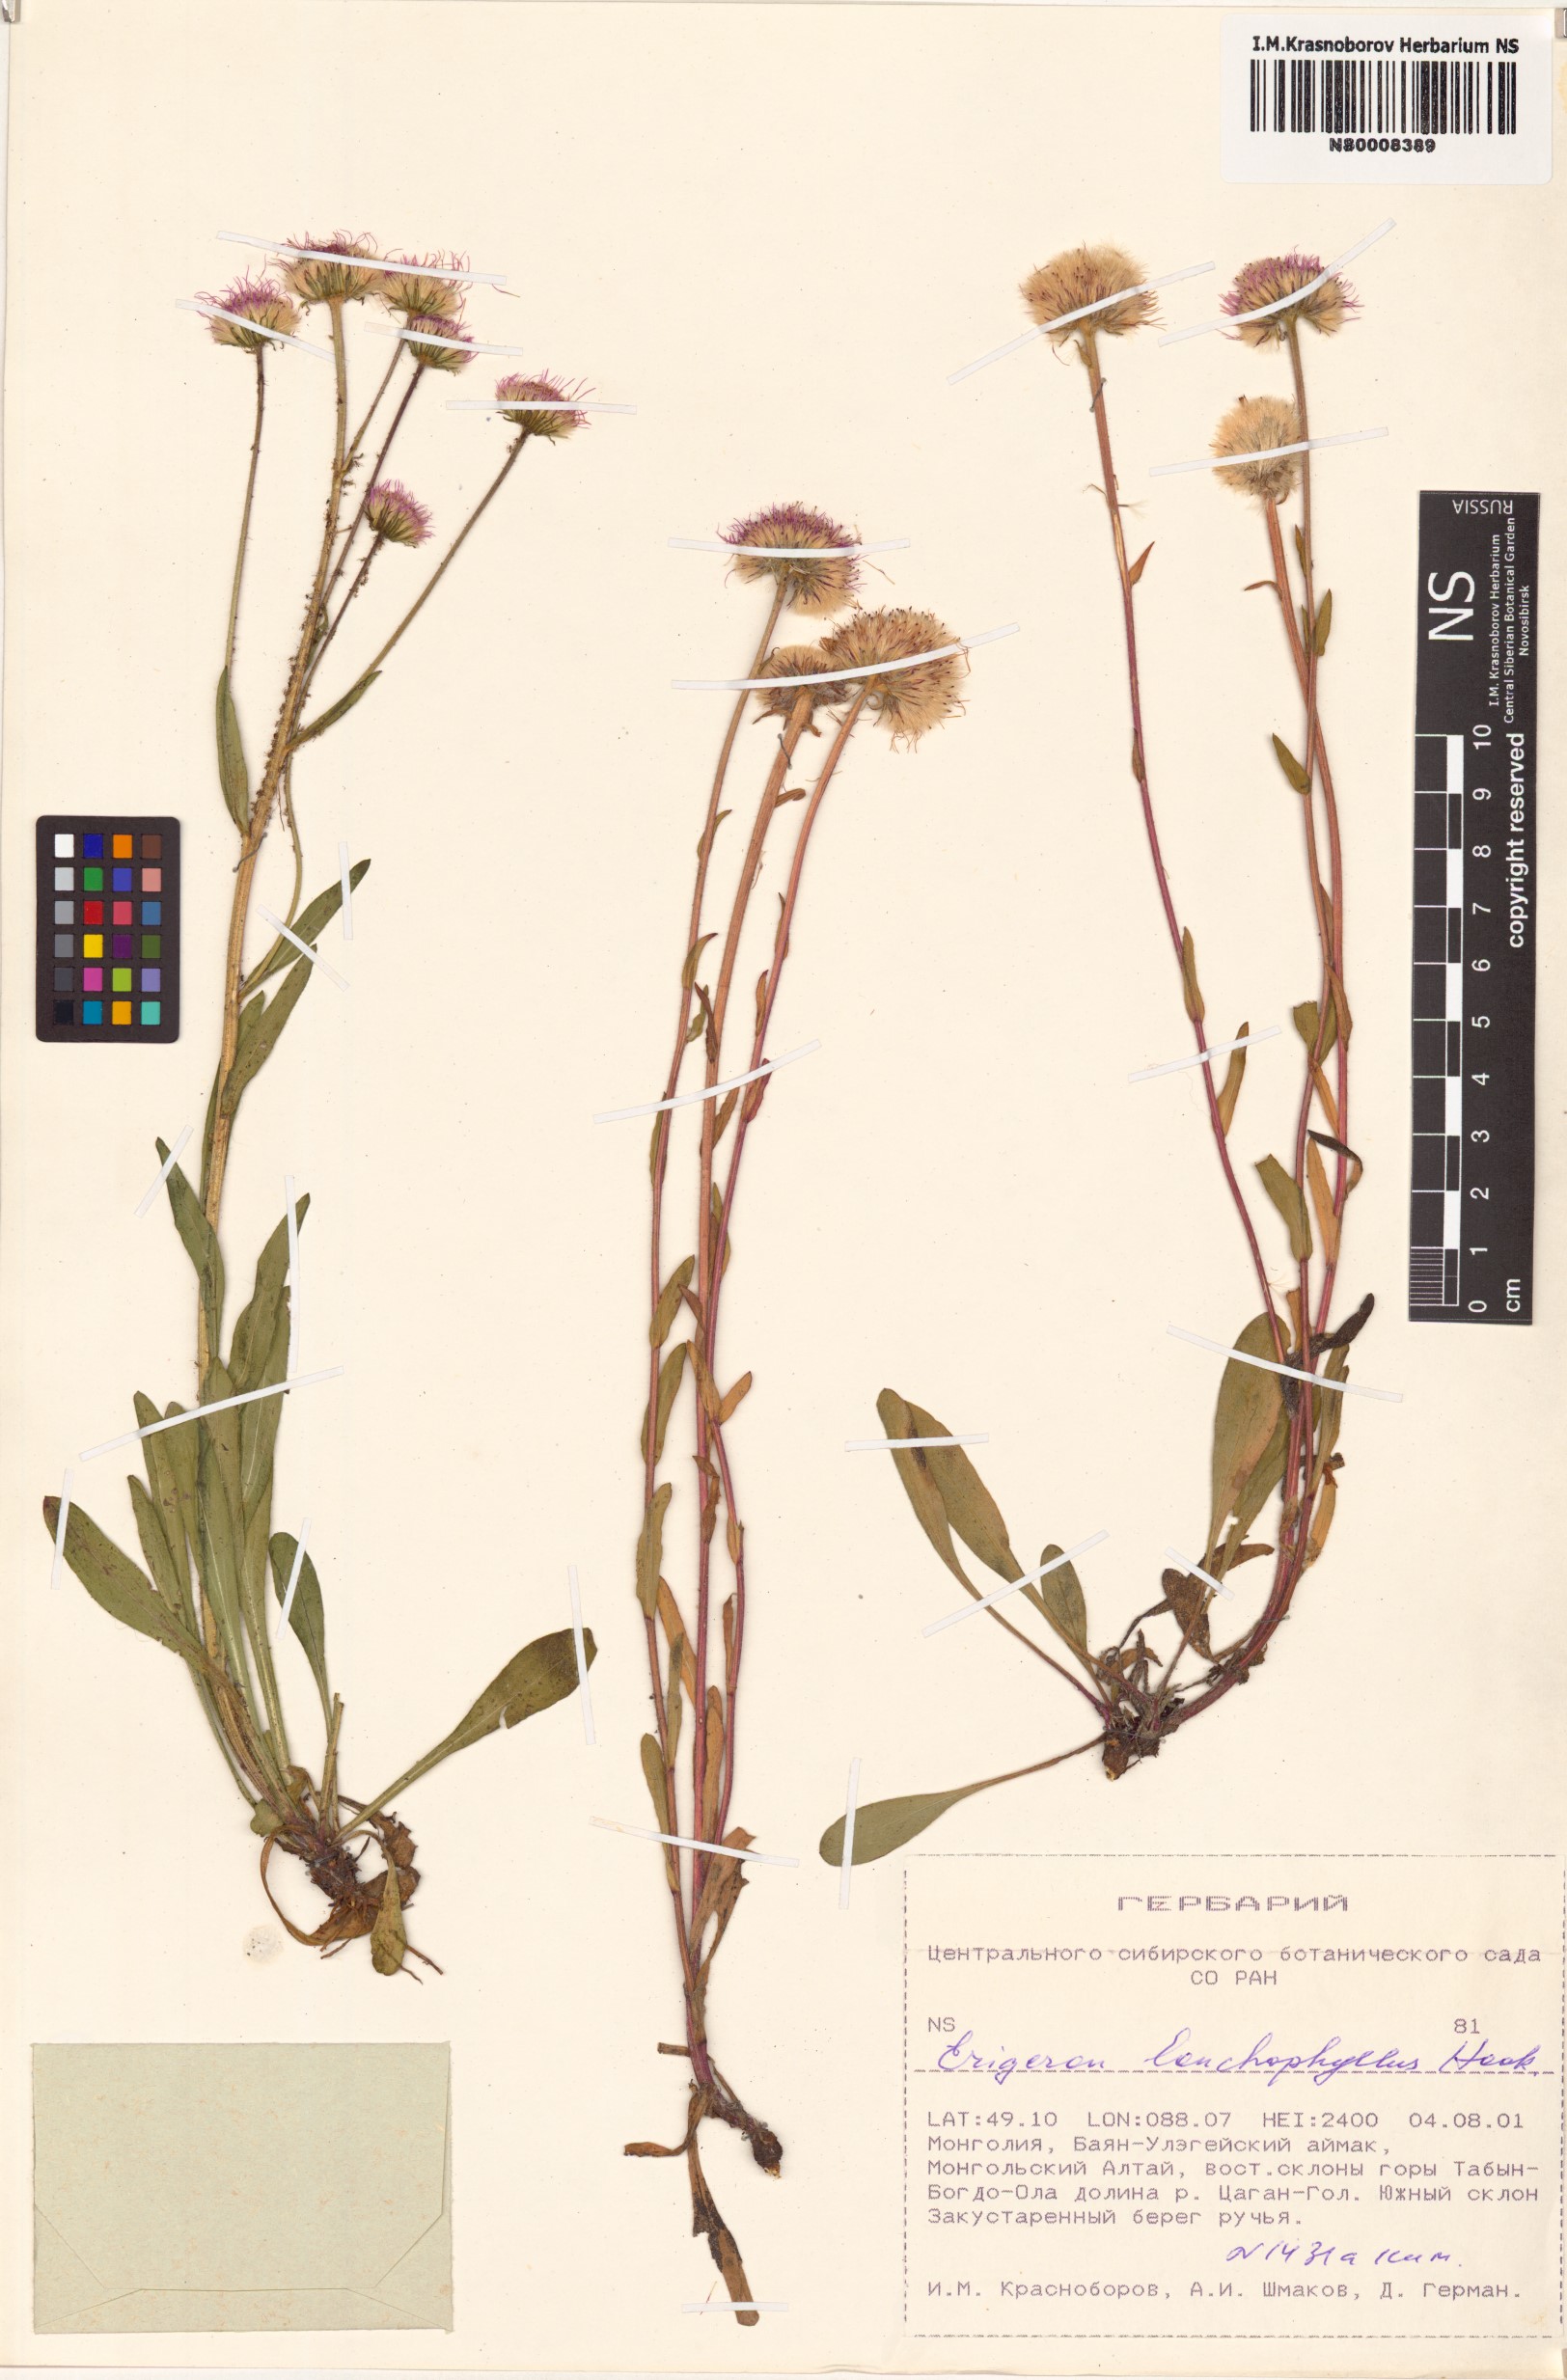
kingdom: Plantae
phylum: Tracheophyta
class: Magnoliopsida
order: Asterales
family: Asteraceae
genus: Erigeron
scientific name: Erigeron lonchophyllus
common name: Short-ray fleabane
